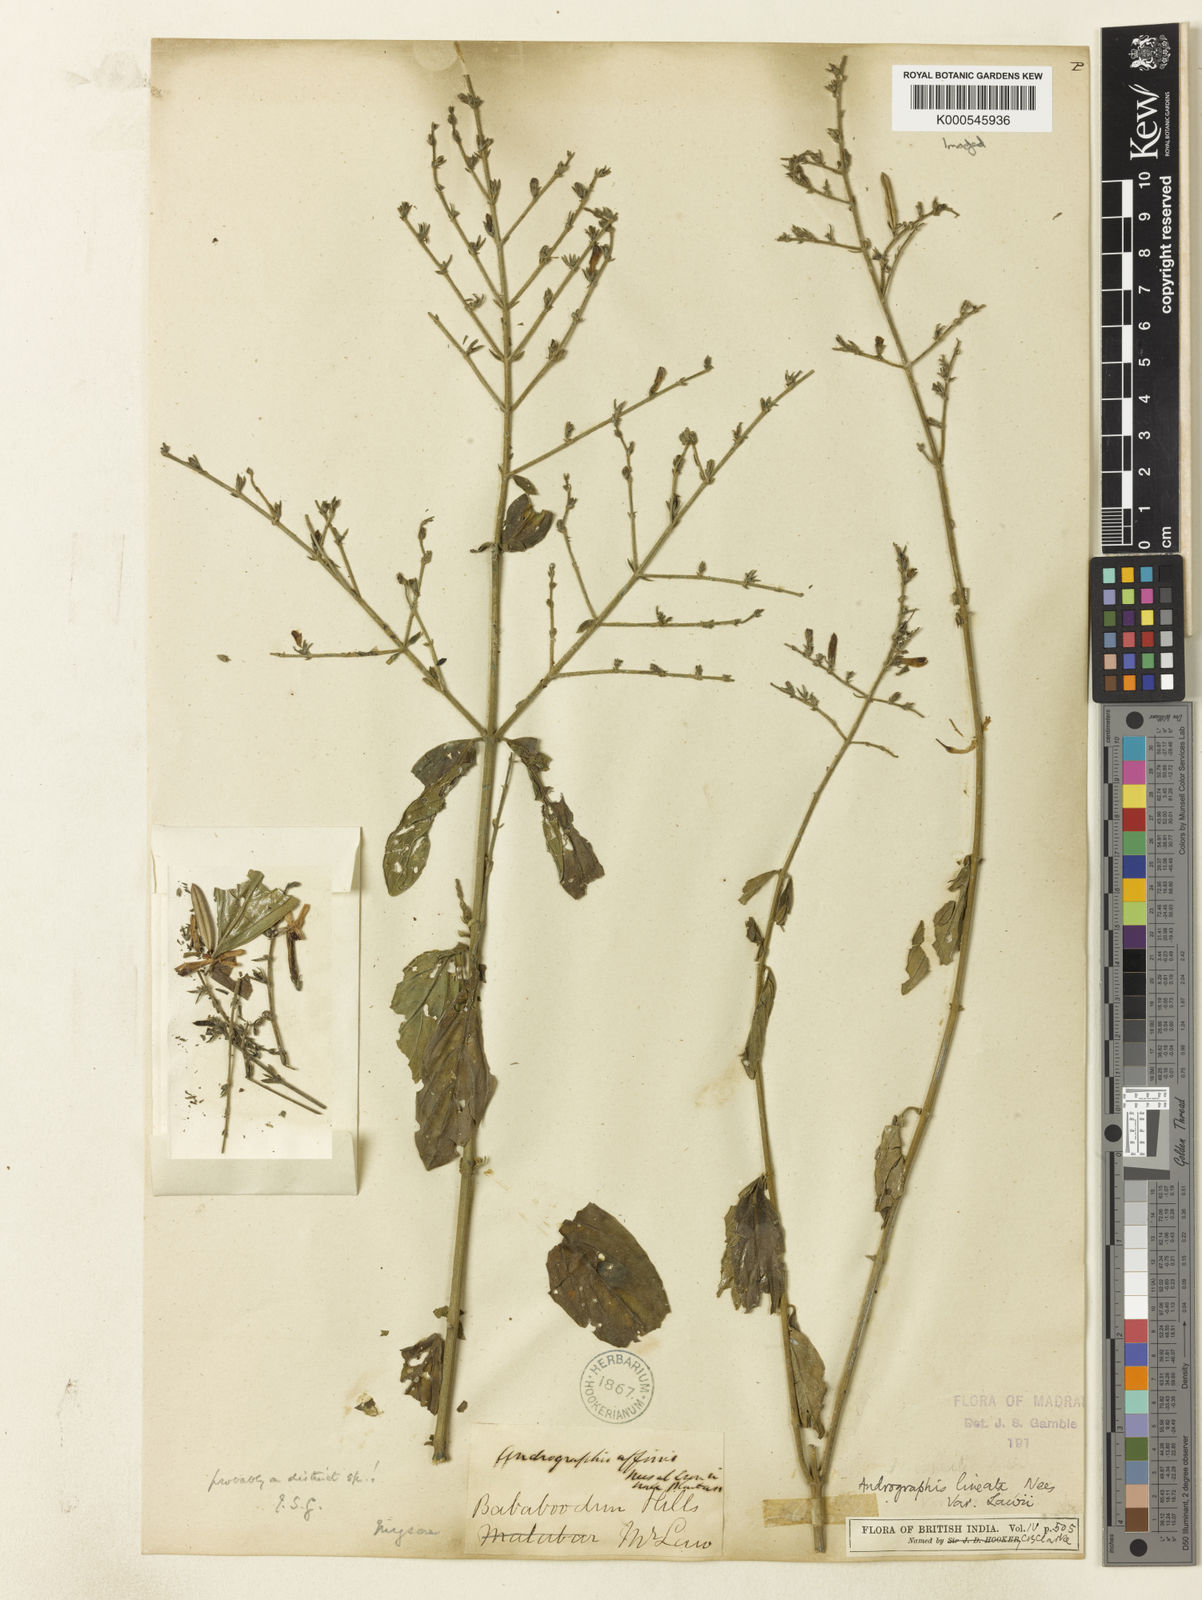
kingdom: Plantae
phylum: Tracheophyta
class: Magnoliopsida
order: Lamiales
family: Acanthaceae
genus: Andrographis
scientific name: Andrographis lineata
